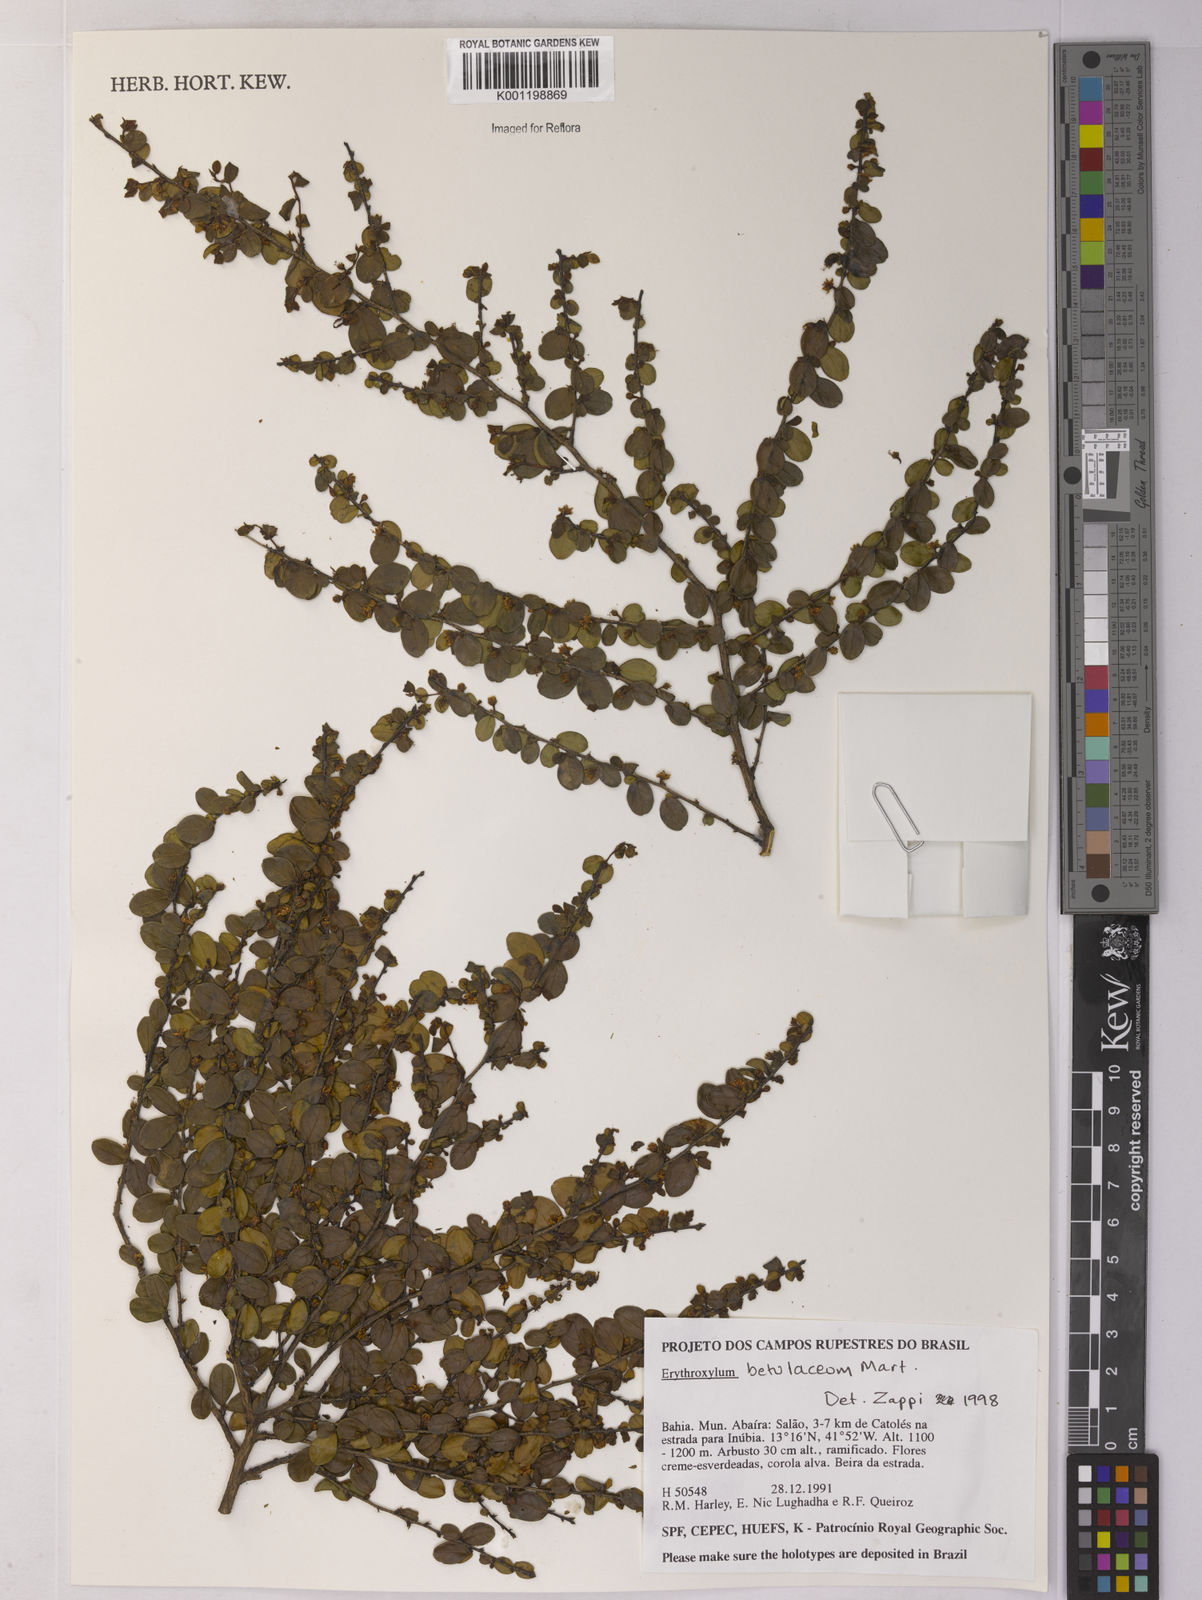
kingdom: Plantae
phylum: Tracheophyta
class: Magnoliopsida
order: Malpighiales
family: Erythroxylaceae
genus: Erythroxylum
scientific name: Erythroxylum betulaceum
